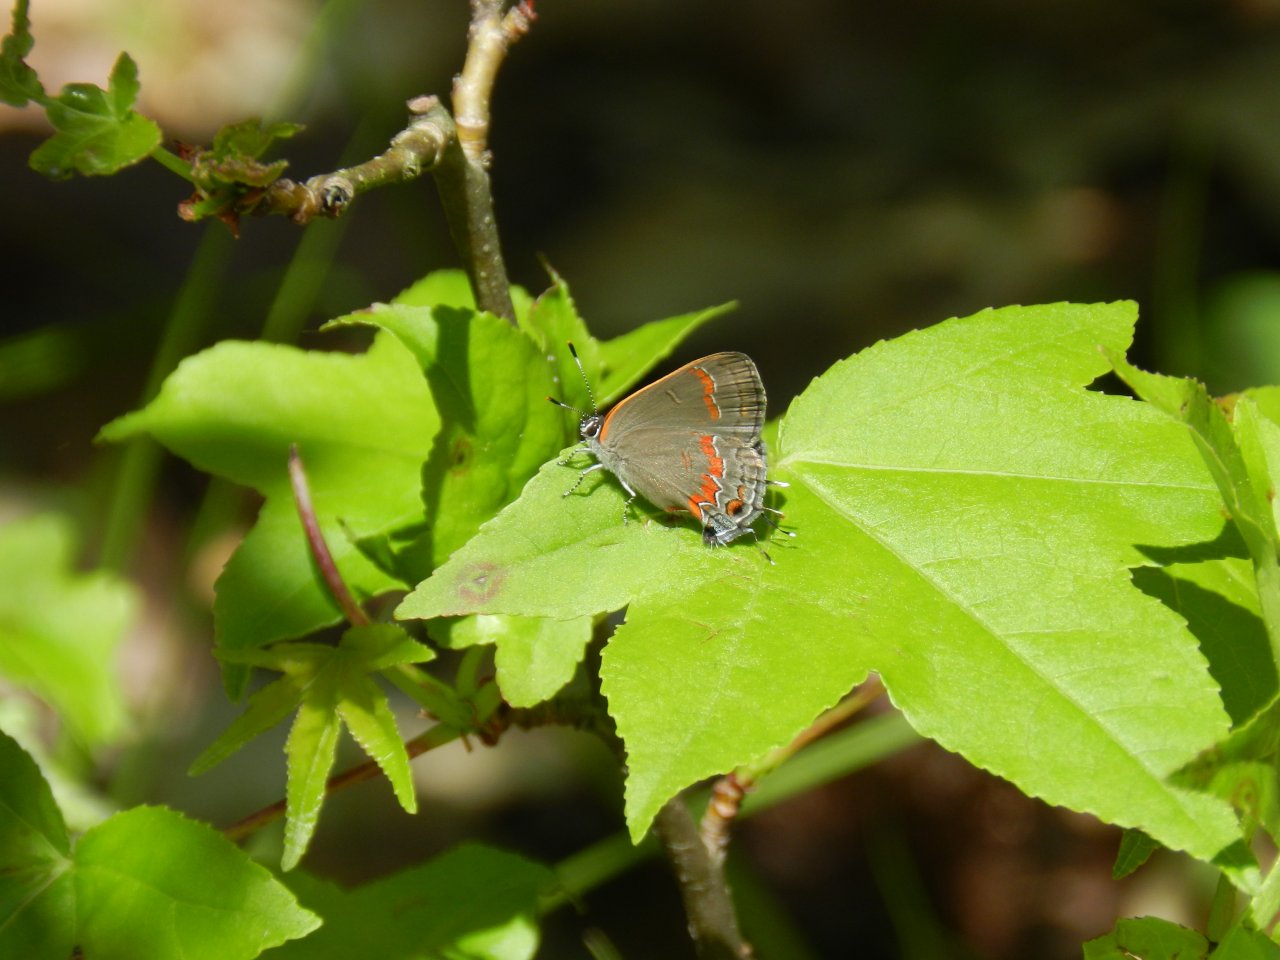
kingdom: Animalia
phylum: Arthropoda
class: Insecta
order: Lepidoptera
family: Lycaenidae
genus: Calycopis
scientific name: Calycopis cecrops
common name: Red-banded Hairstreak
